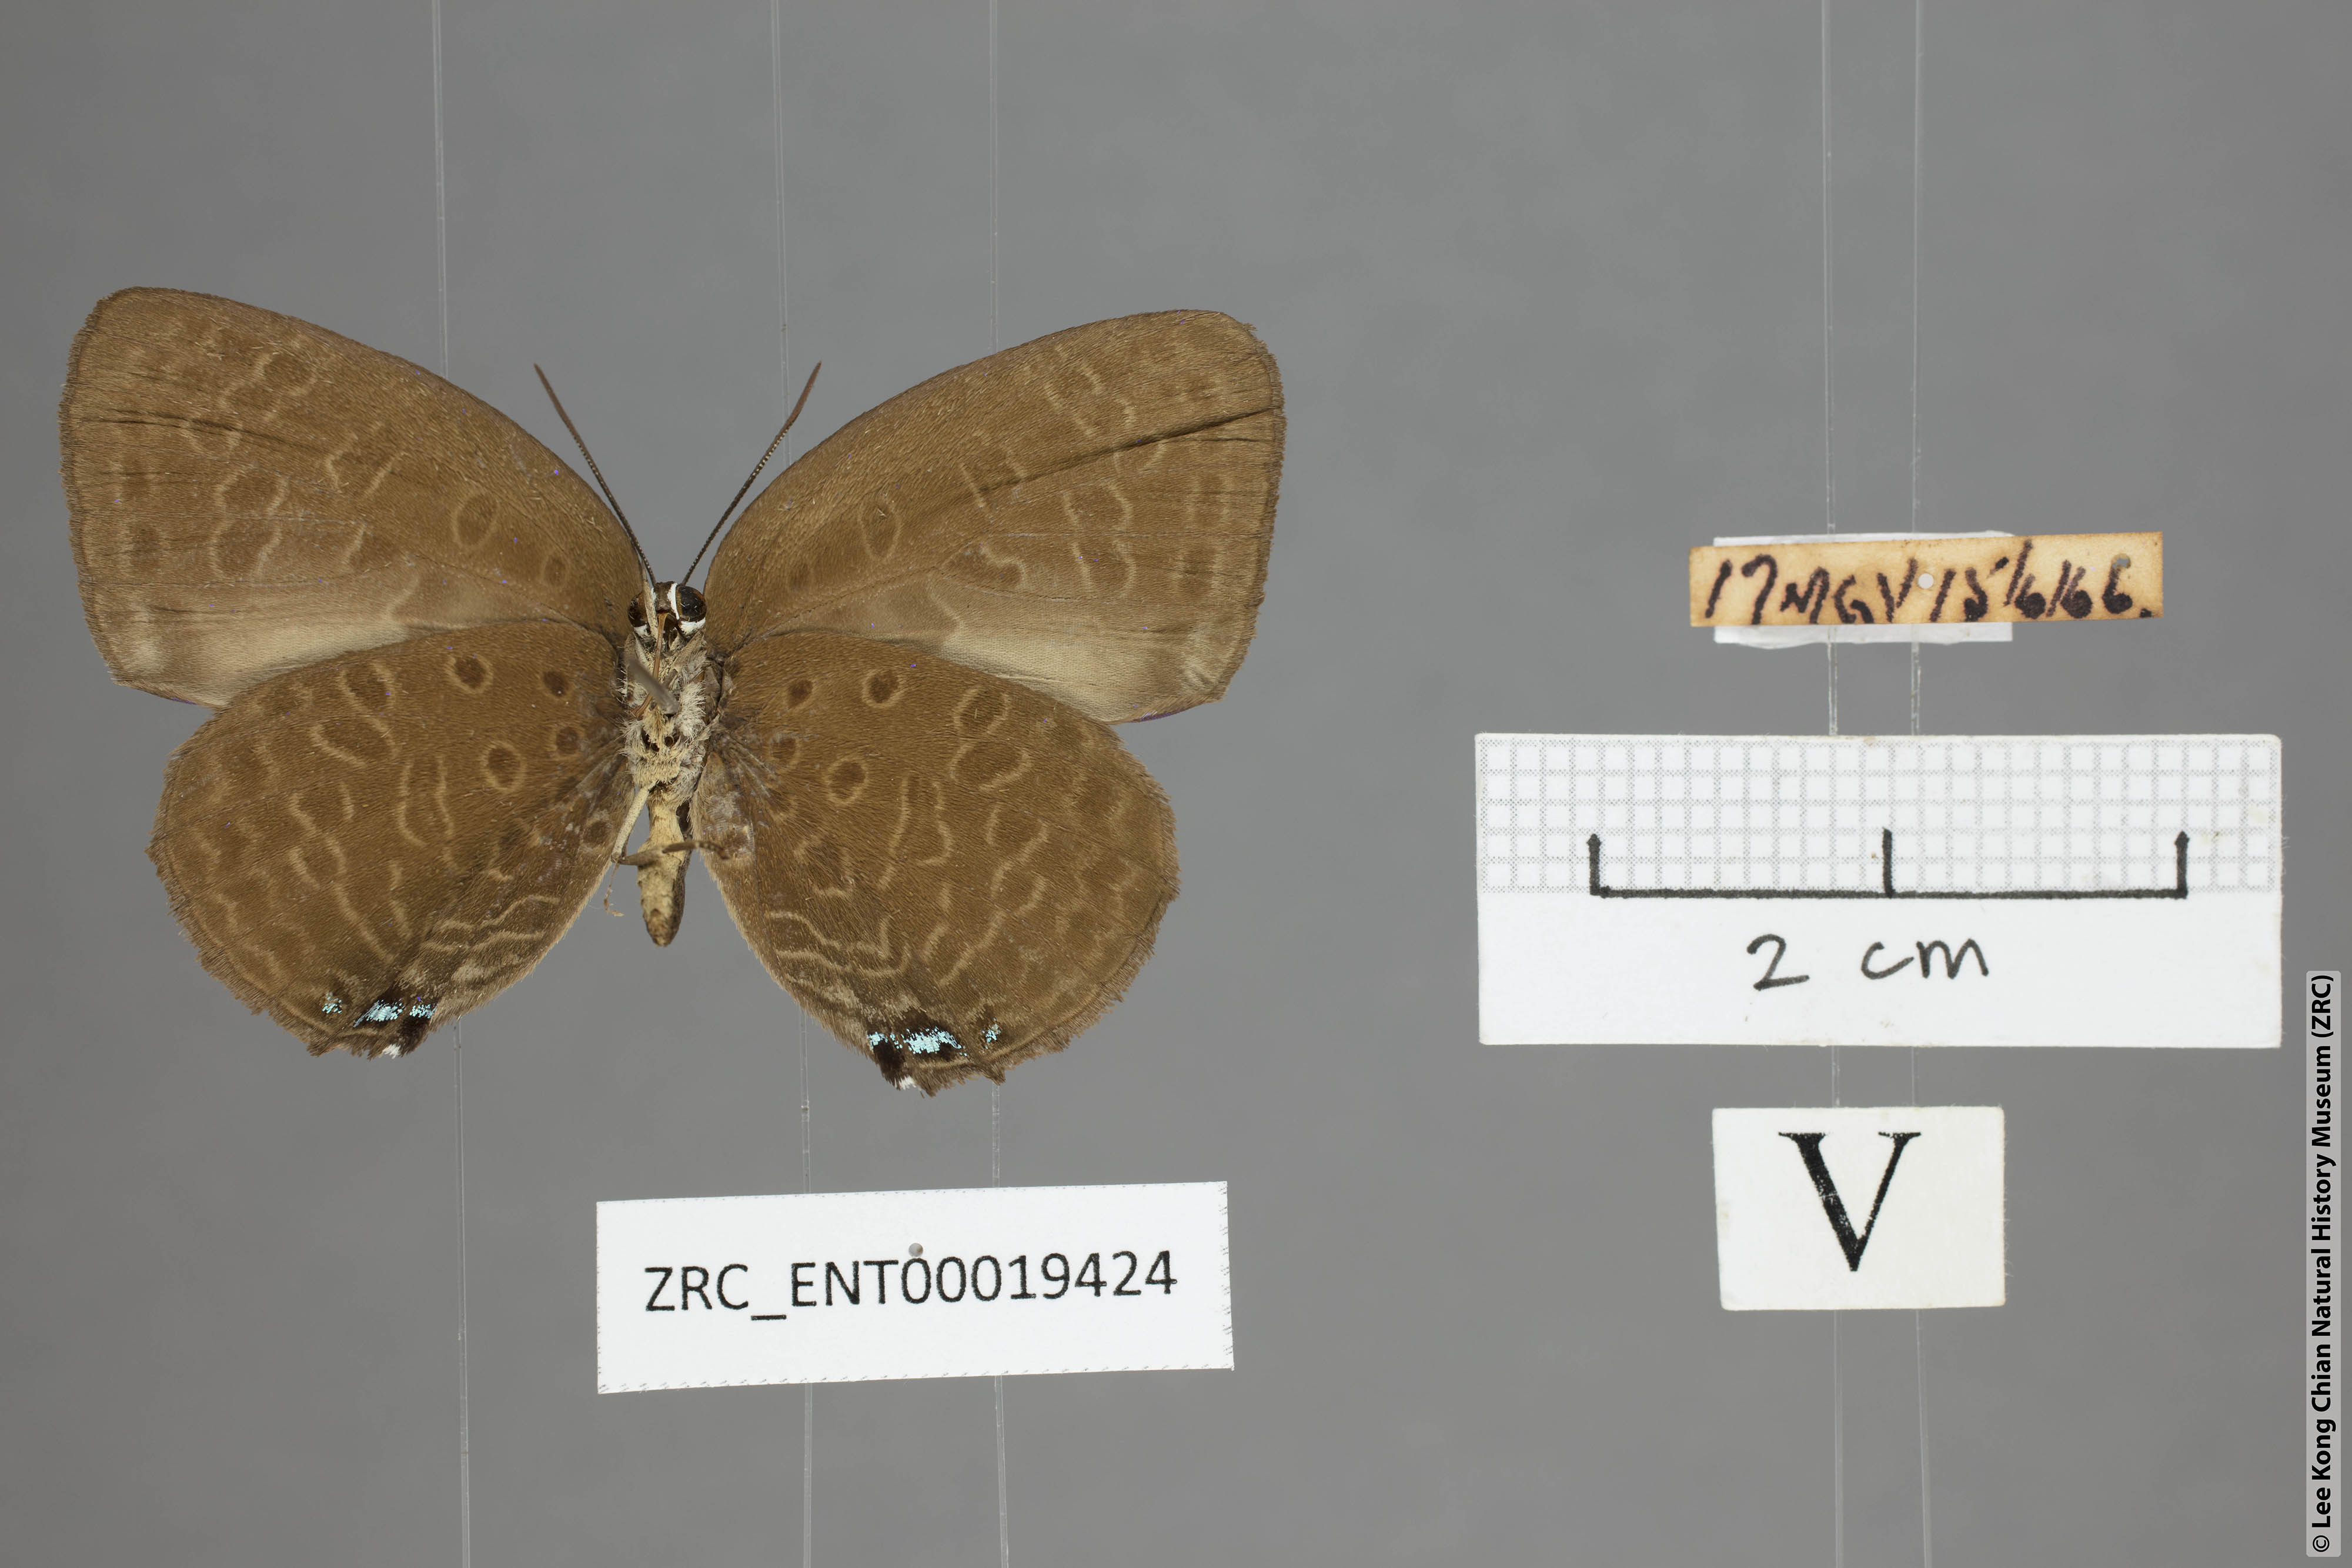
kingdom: Animalia
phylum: Arthropoda
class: Insecta
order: Lepidoptera
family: Lycaenidae
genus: Arhopala
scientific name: Arhopala epimuta
